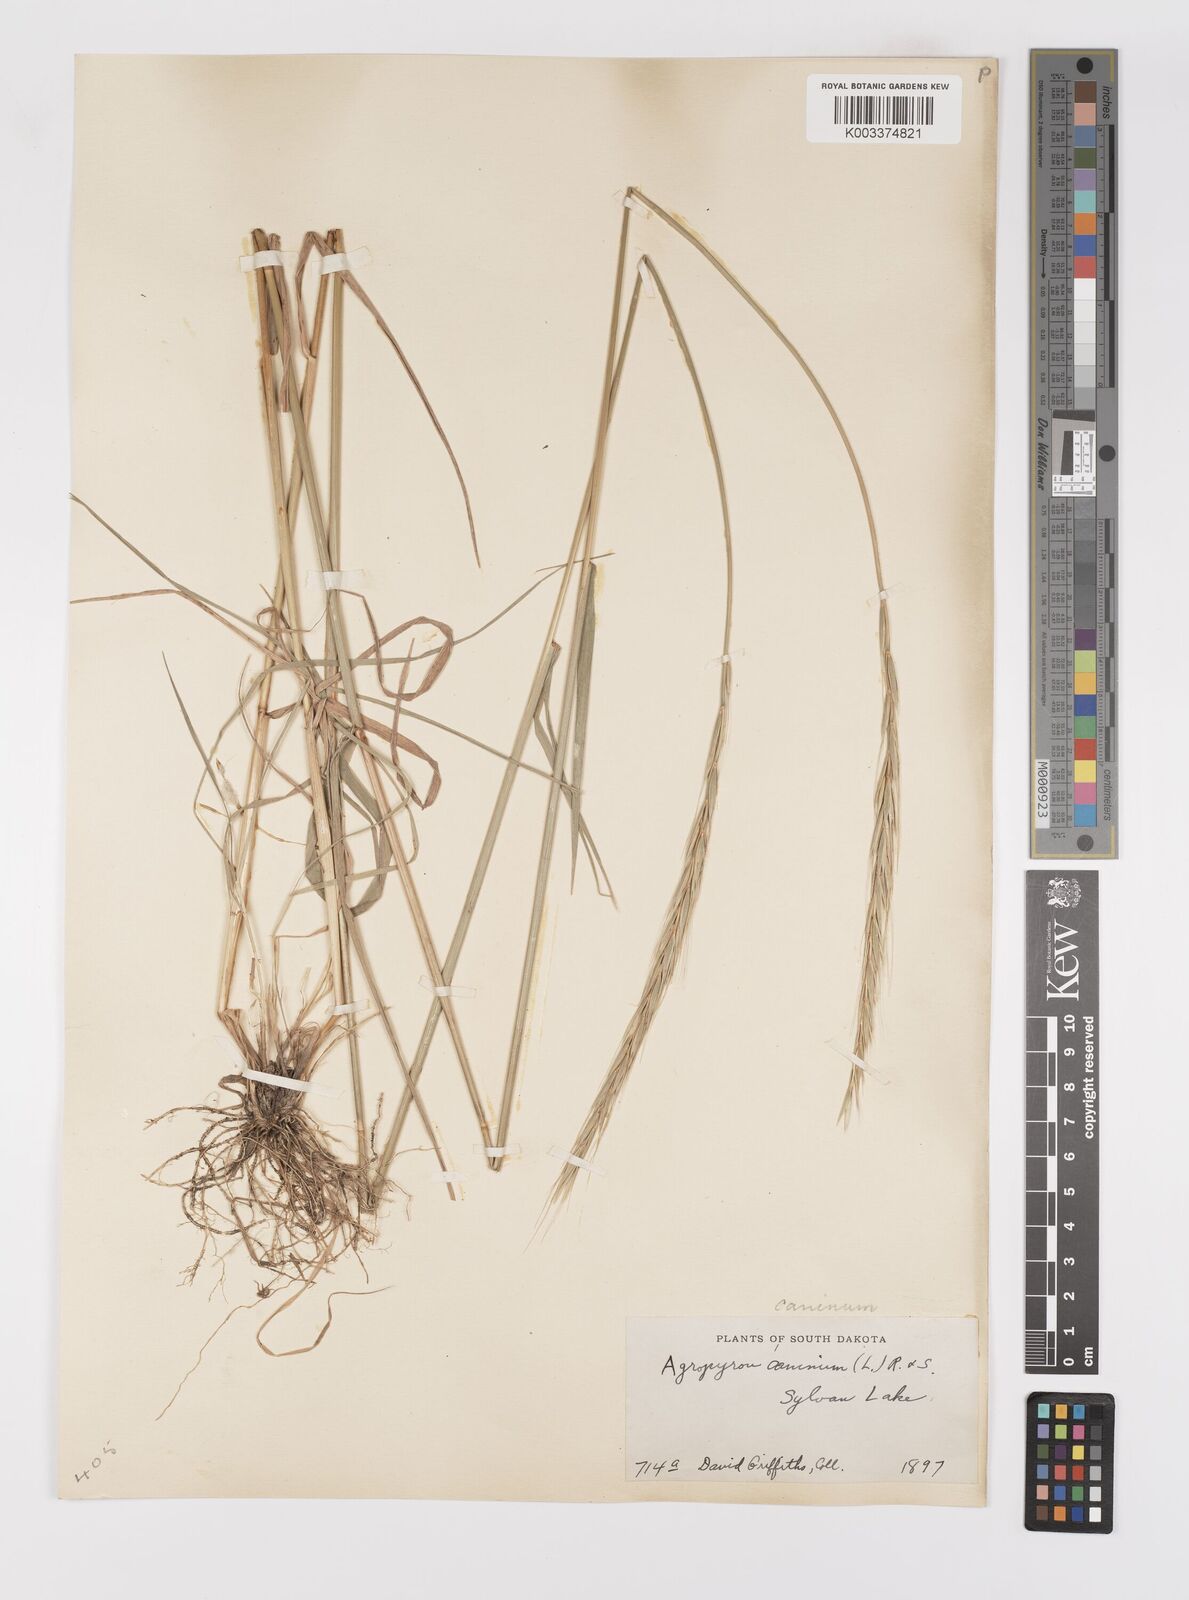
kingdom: Plantae
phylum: Tracheophyta
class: Liliopsida
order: Poales
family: Poaceae
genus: Elymus
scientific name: Elymus violaceus
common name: Arctic wheatgrass
